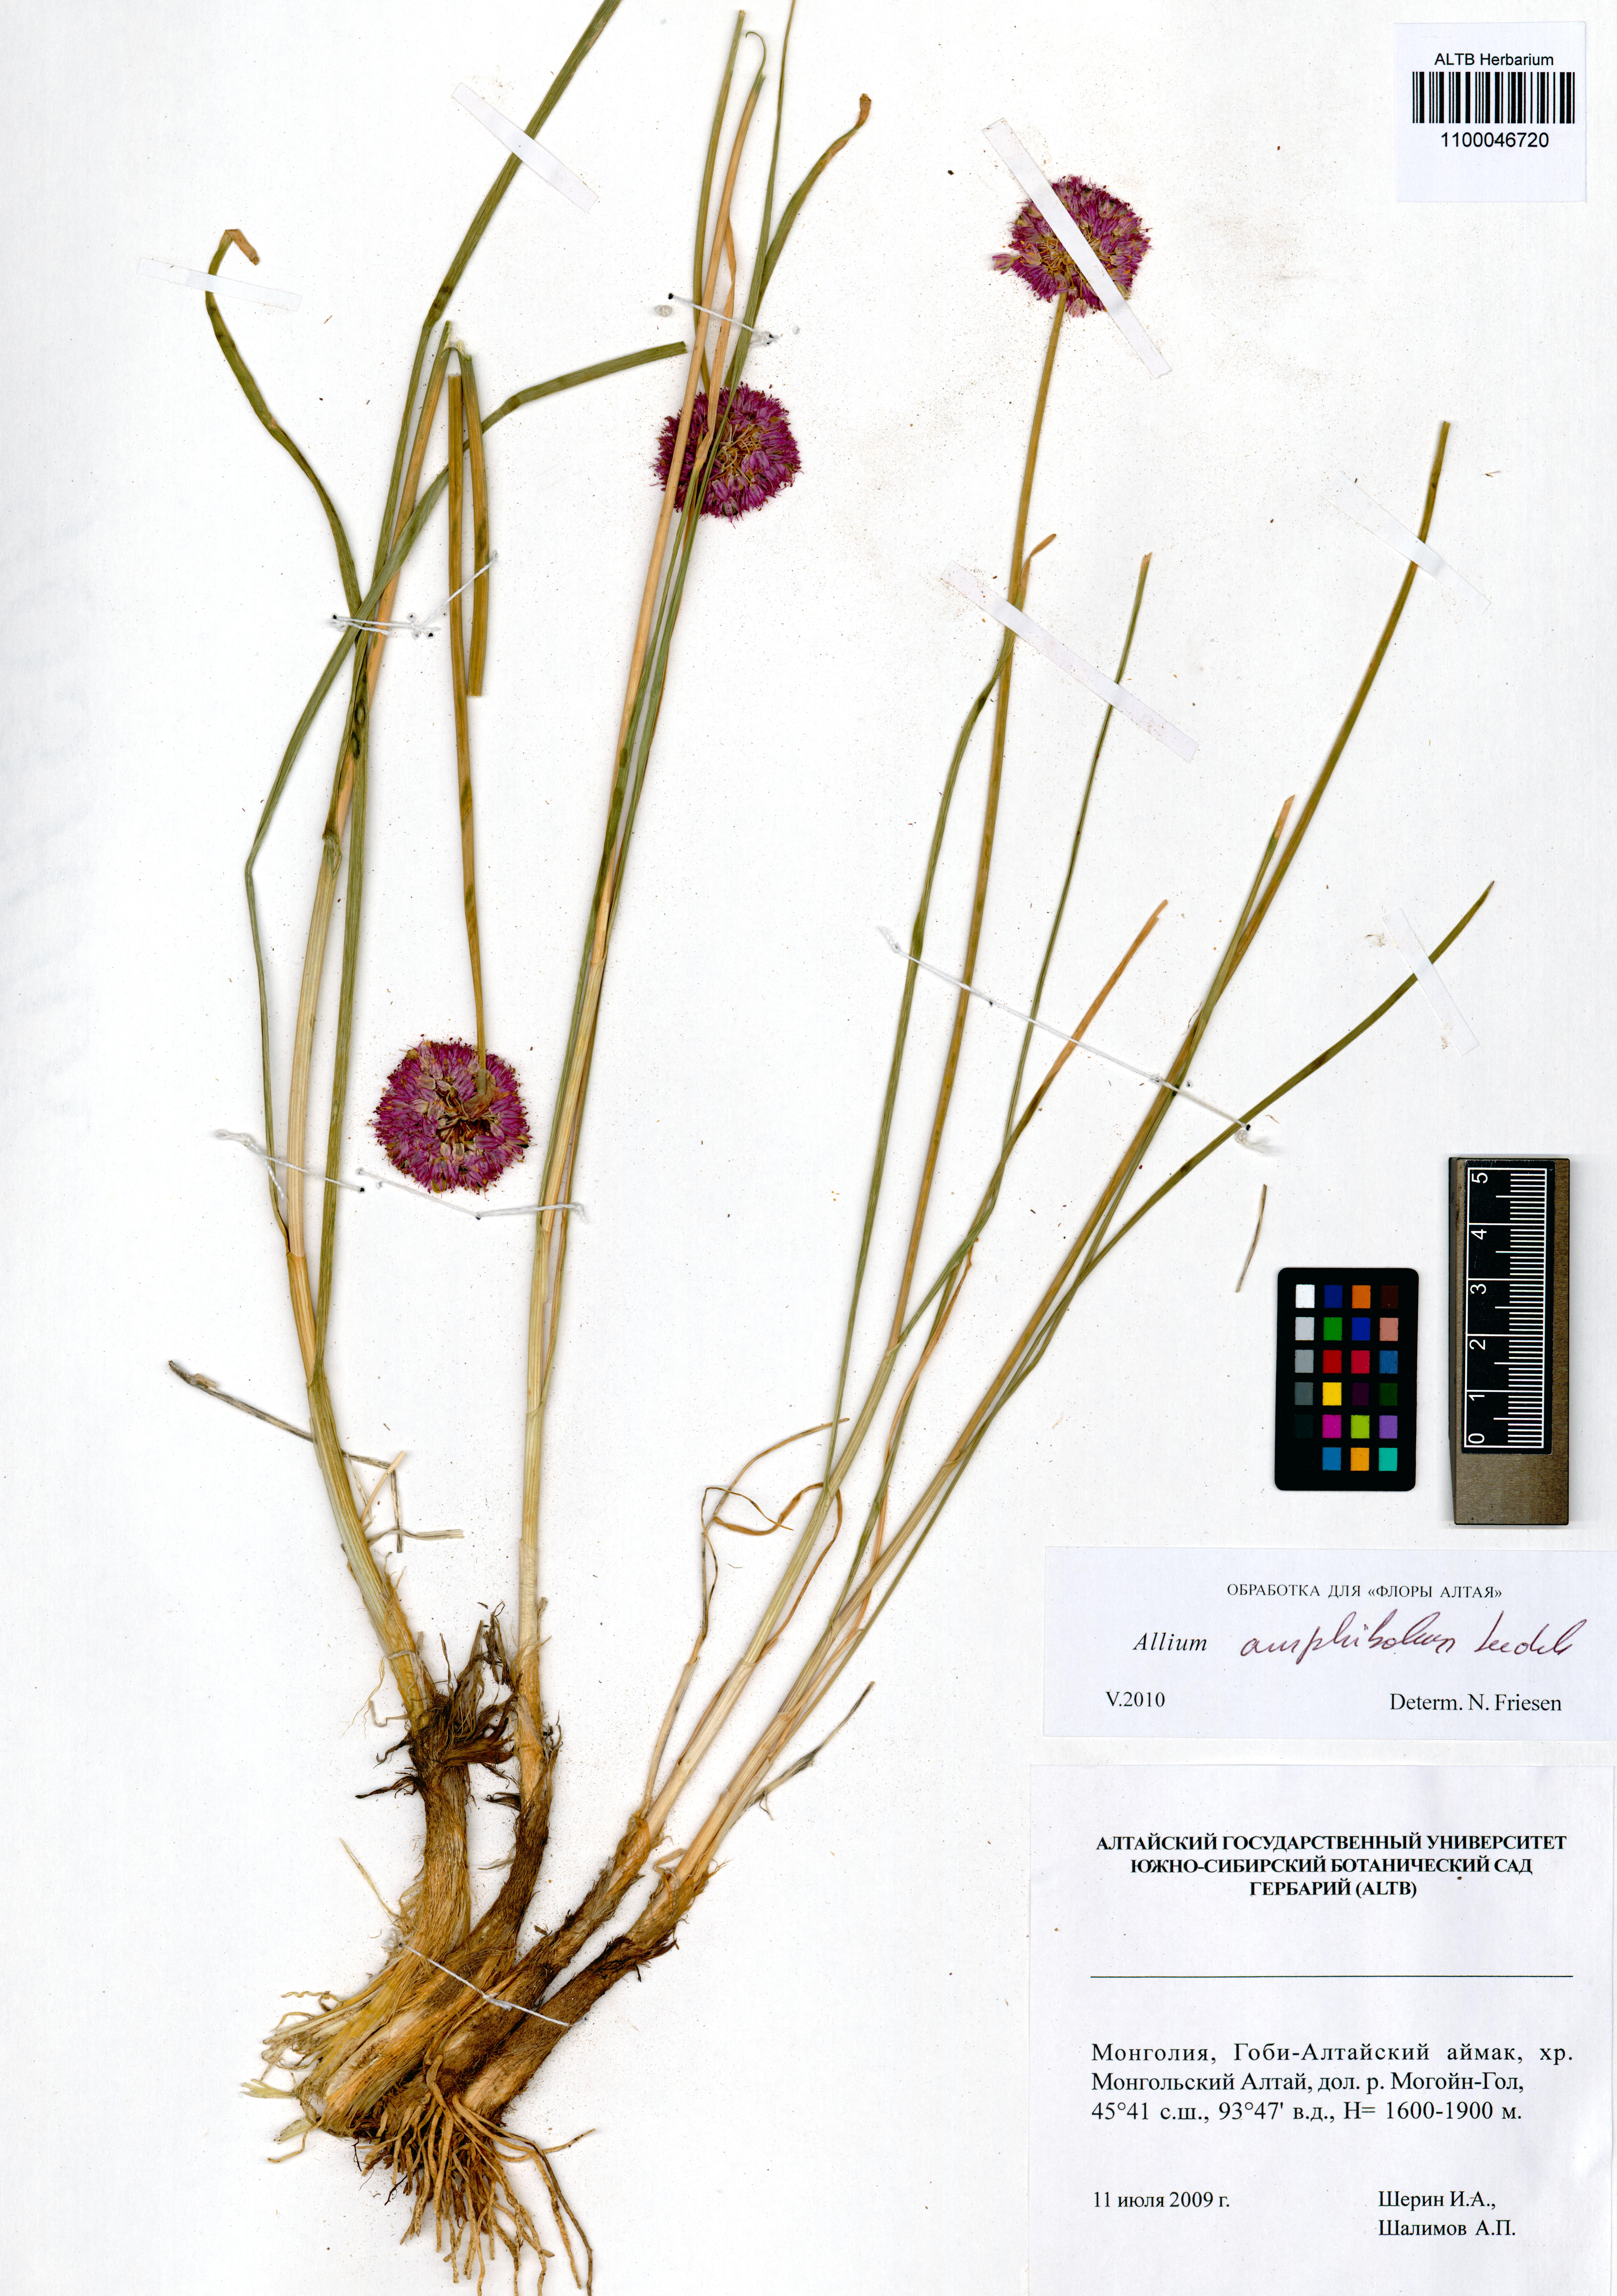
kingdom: Plantae
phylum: Tracheophyta
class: Liliopsida
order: Asparagales
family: Amaryllidaceae
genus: Allium
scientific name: Allium amphibolum
